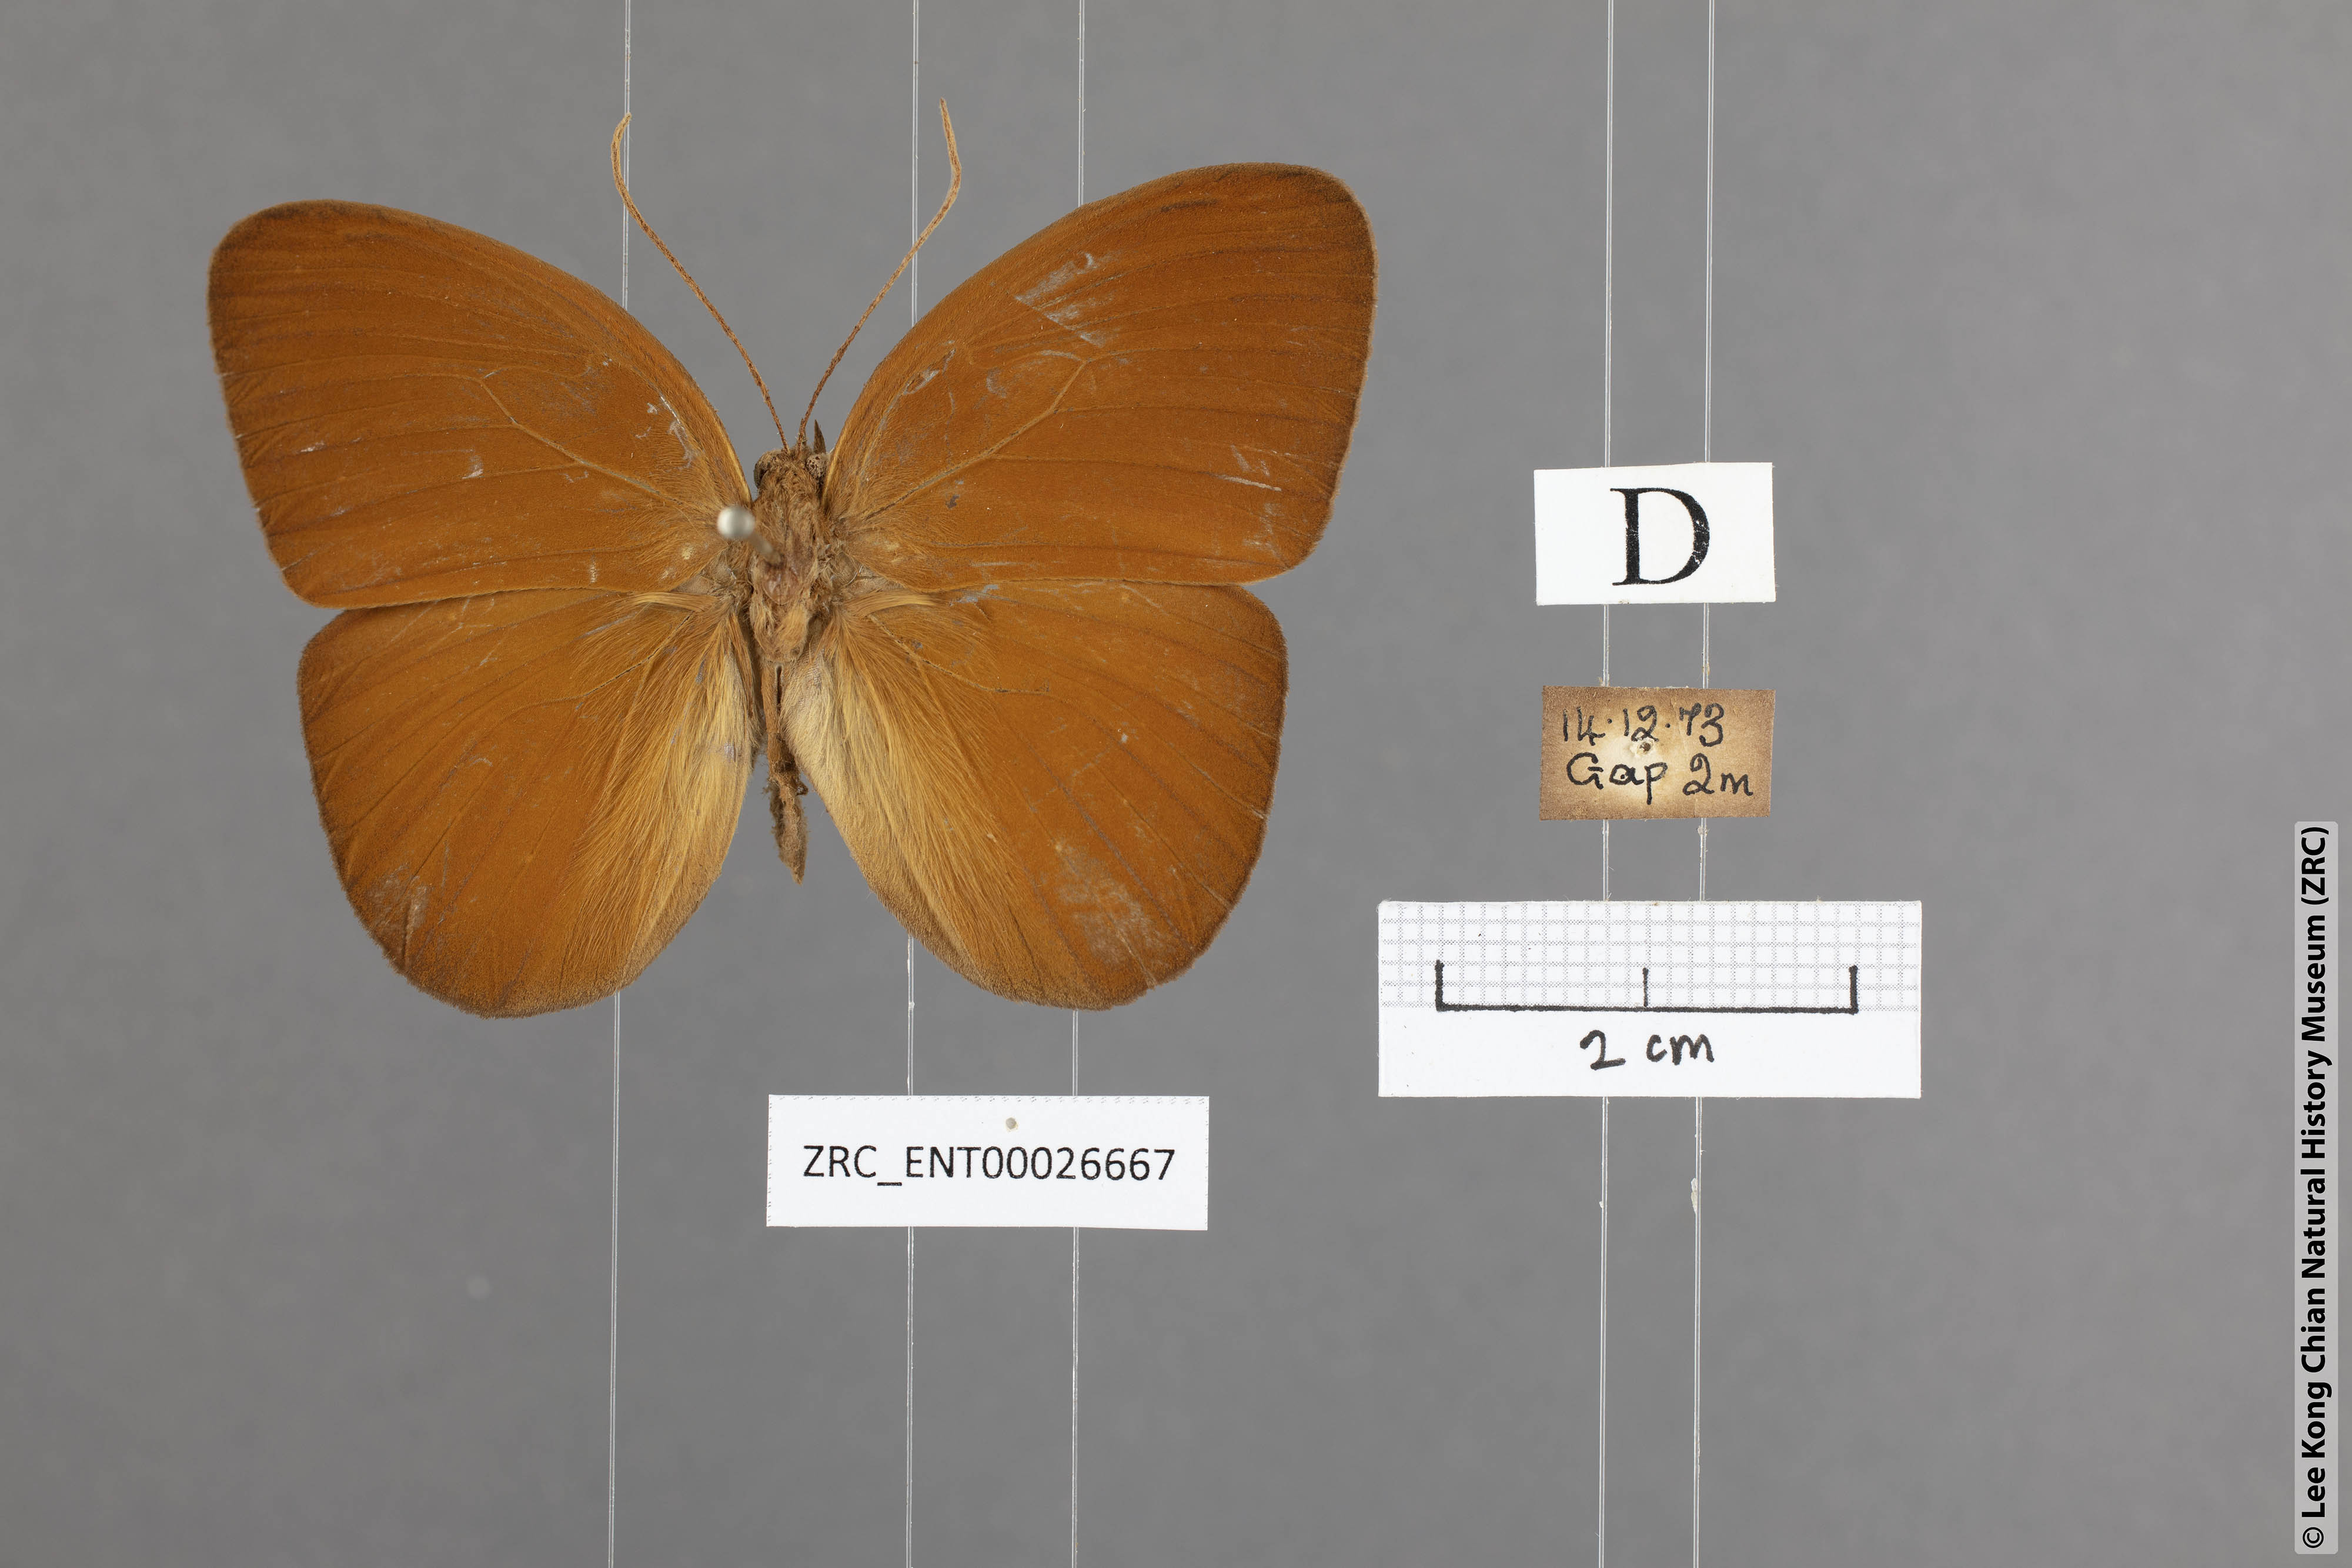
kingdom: Animalia
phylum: Arthropoda
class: Insecta
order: Lepidoptera
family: Nymphalidae
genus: Faunis
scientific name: Faunis canens
